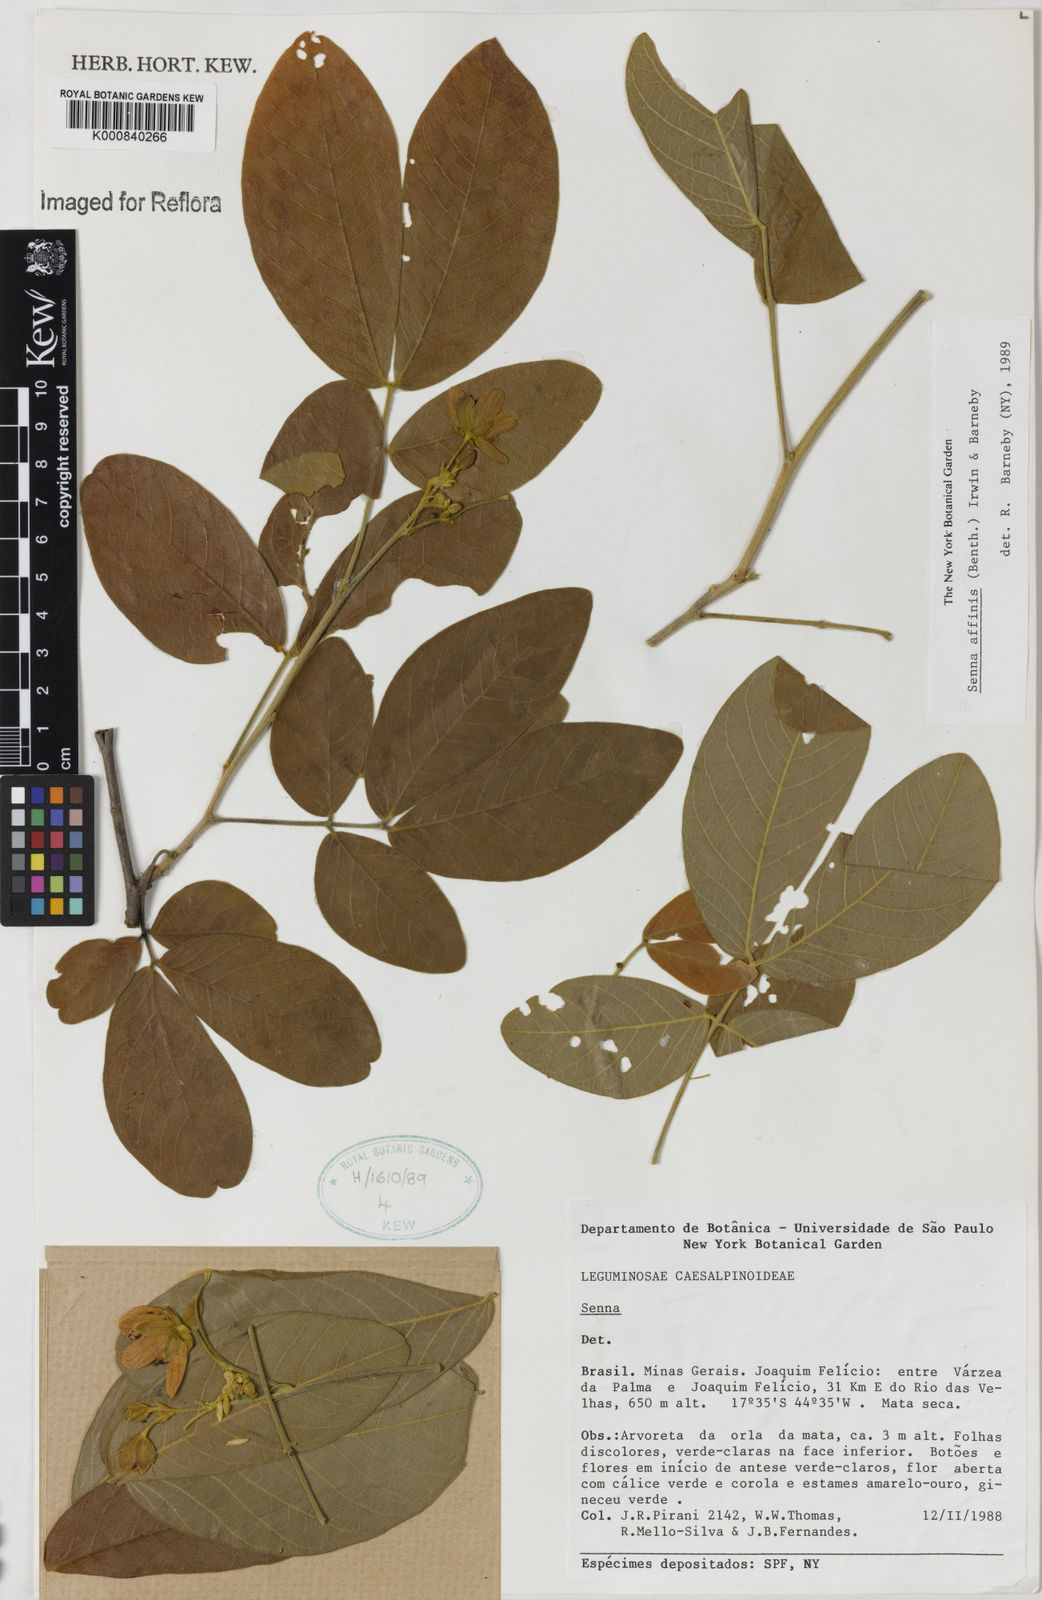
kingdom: Plantae
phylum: Tracheophyta
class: Magnoliopsida
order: Fabales
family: Fabaceae
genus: Senna
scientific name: Senna macranthera
